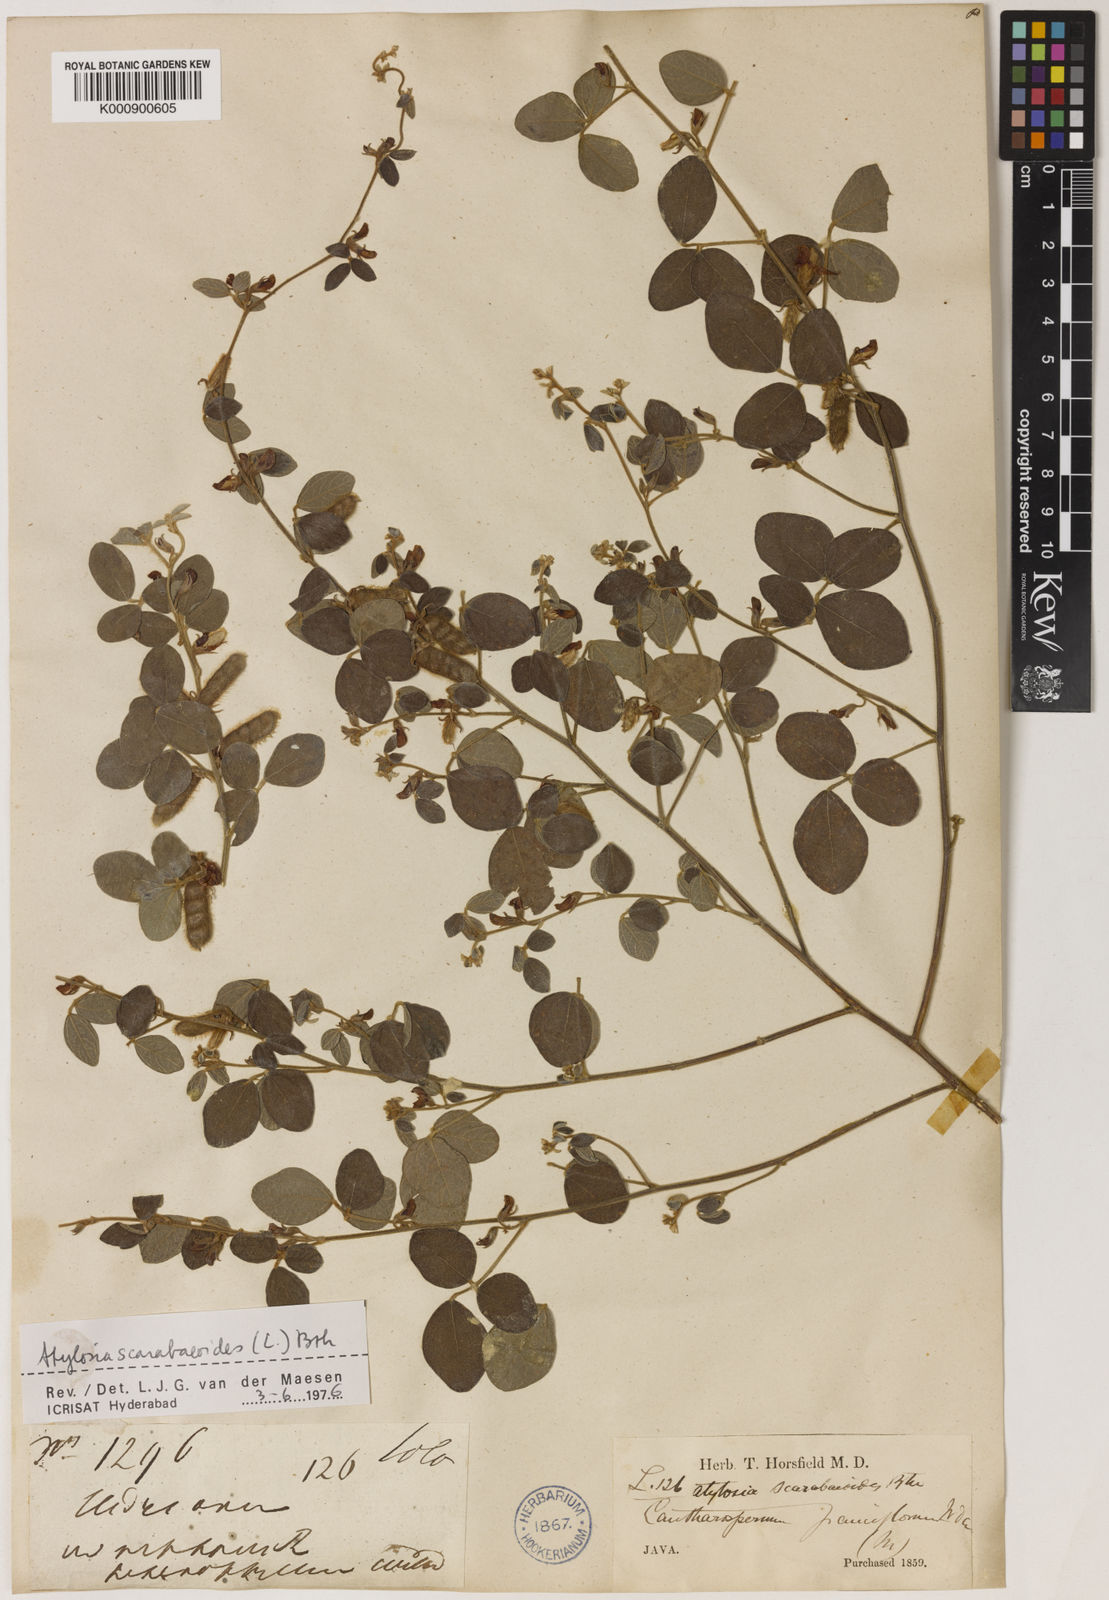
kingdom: Plantae
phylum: Tracheophyta
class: Magnoliopsida
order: Fabales
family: Fabaceae
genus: Cajanus
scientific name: Cajanus
